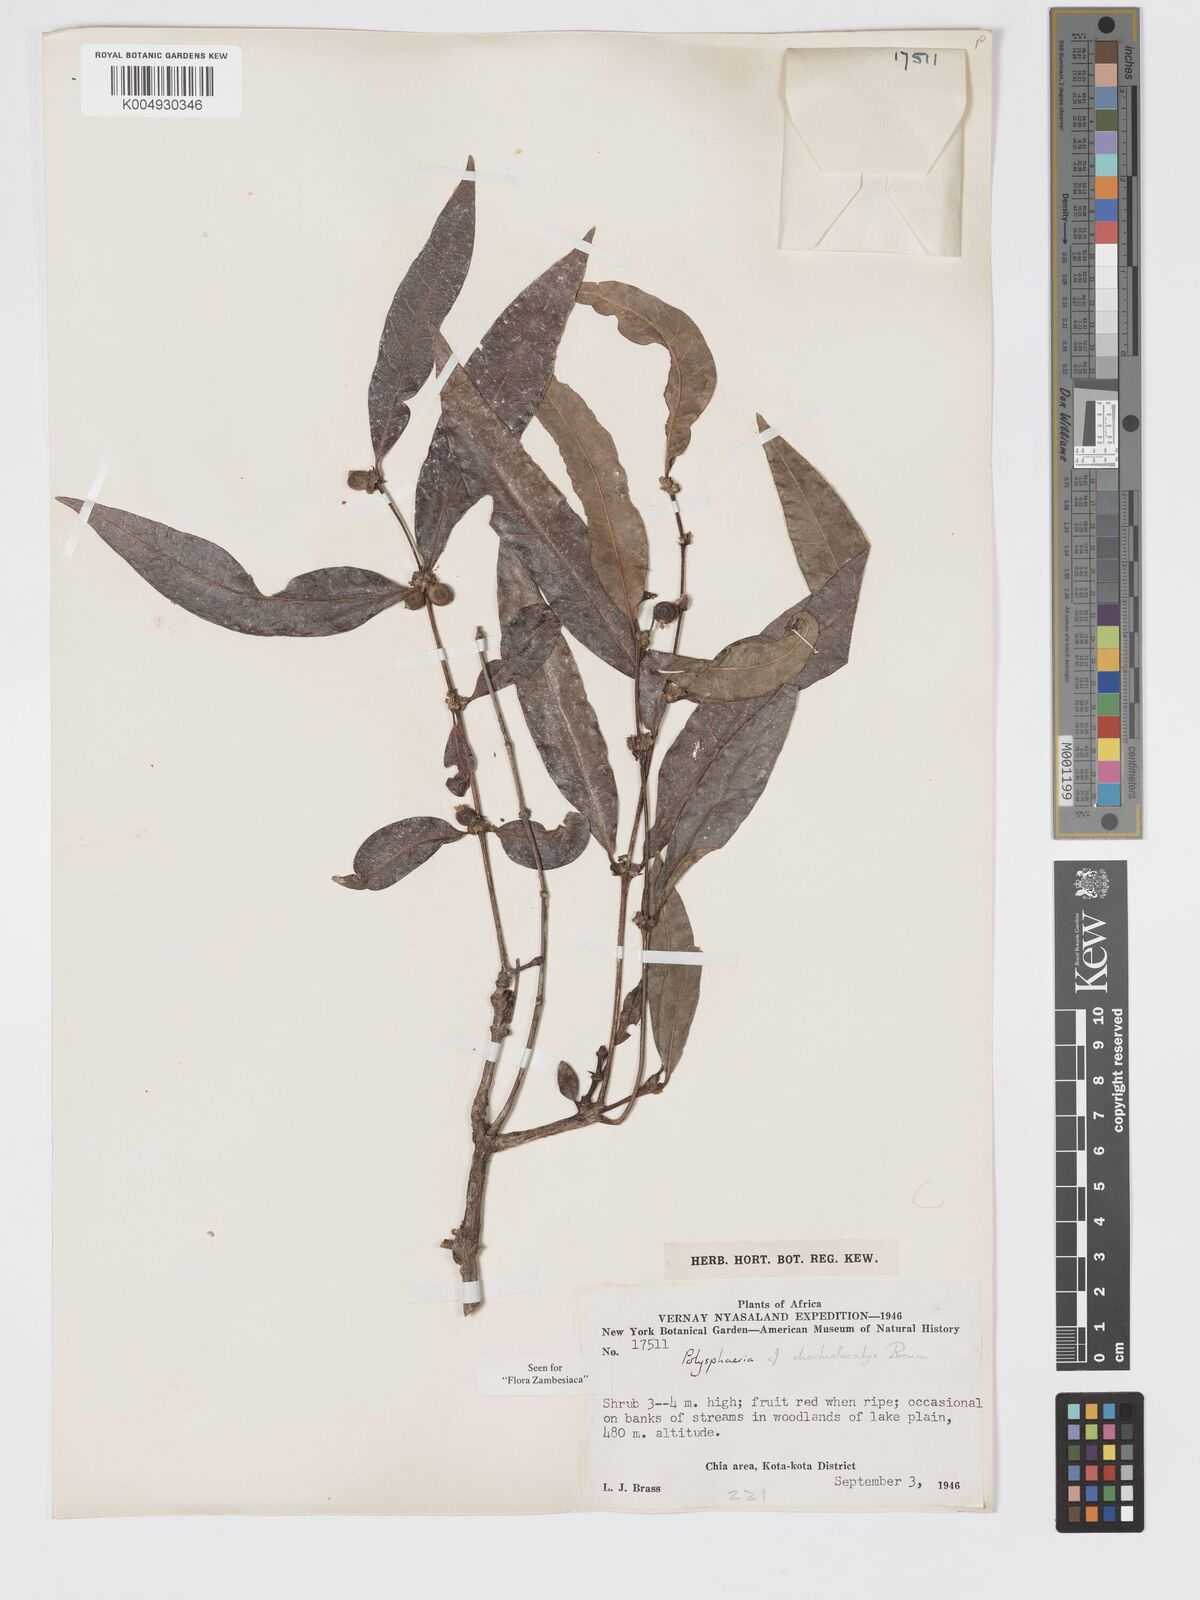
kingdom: Plantae
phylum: Tracheophyta
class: Magnoliopsida
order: Gentianales
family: Rubiaceae
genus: Polysphaeria
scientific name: Polysphaeria dischistocalyx
